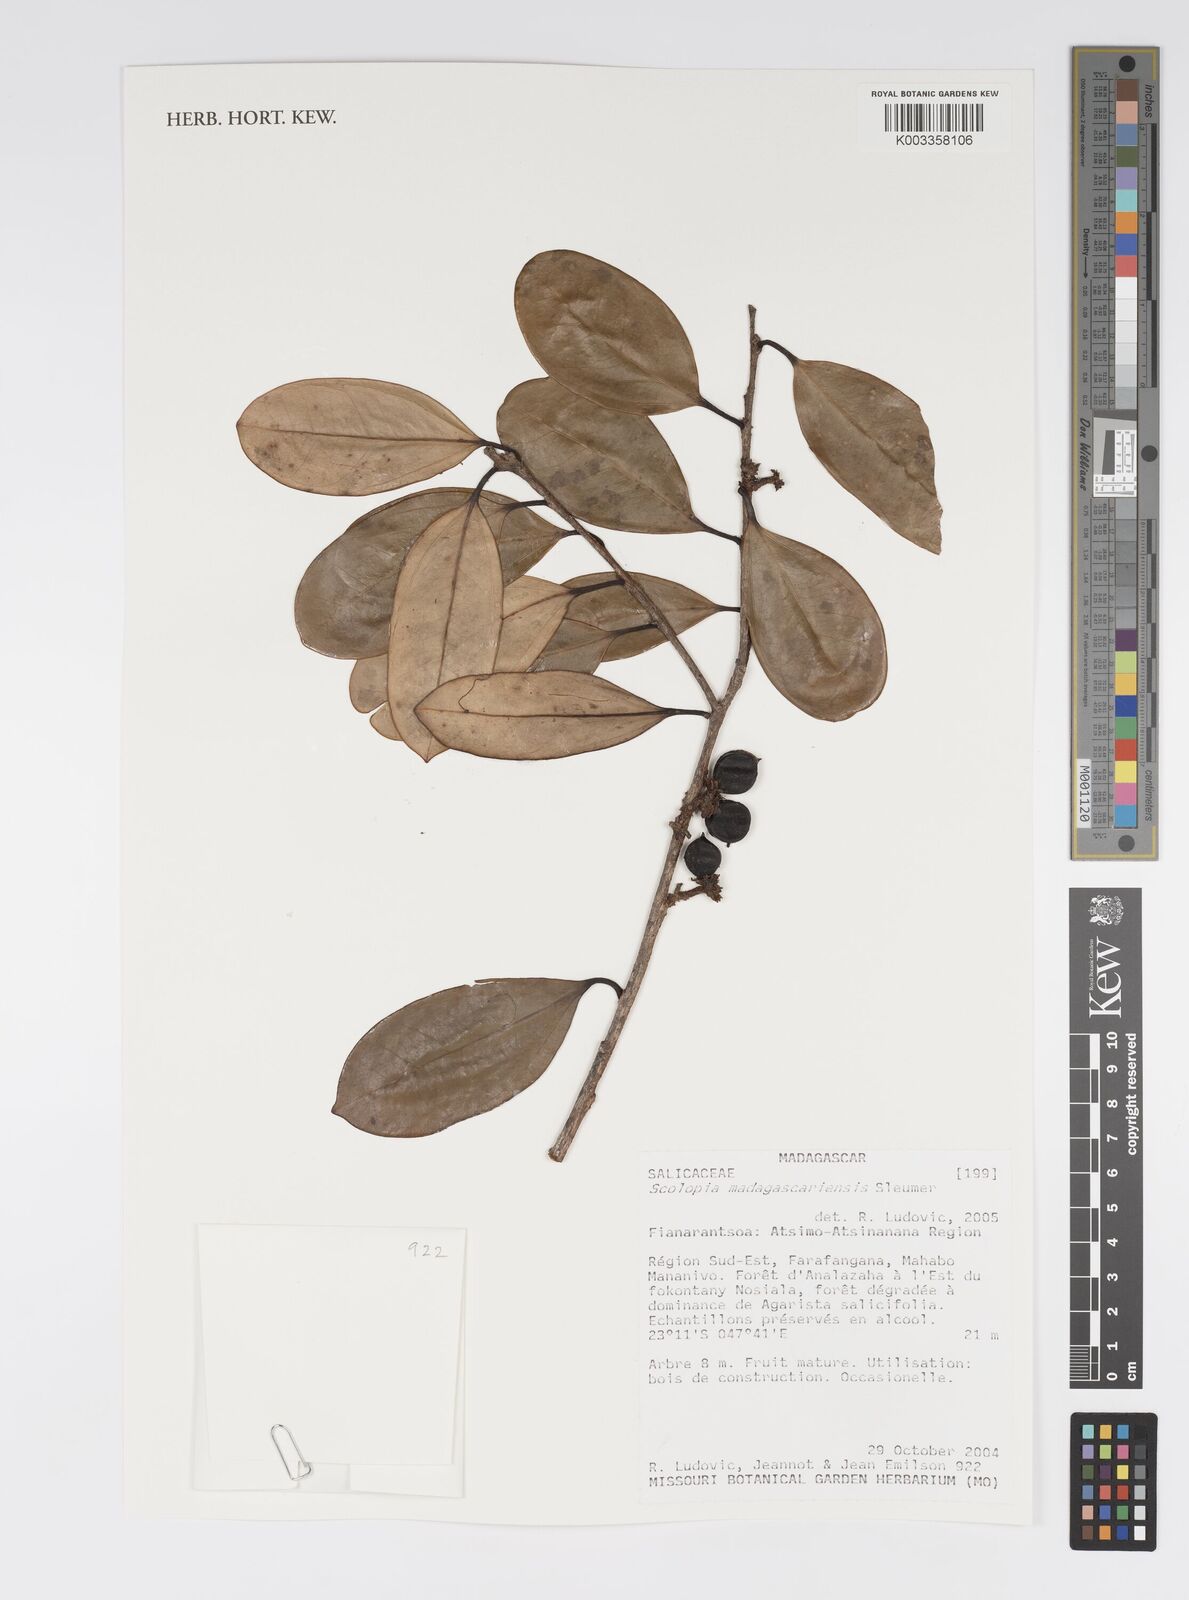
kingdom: Plantae
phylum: Tracheophyta
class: Magnoliopsida
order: Malpighiales
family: Salicaceae
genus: Scolopia
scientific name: Scolopia madagascariensis
